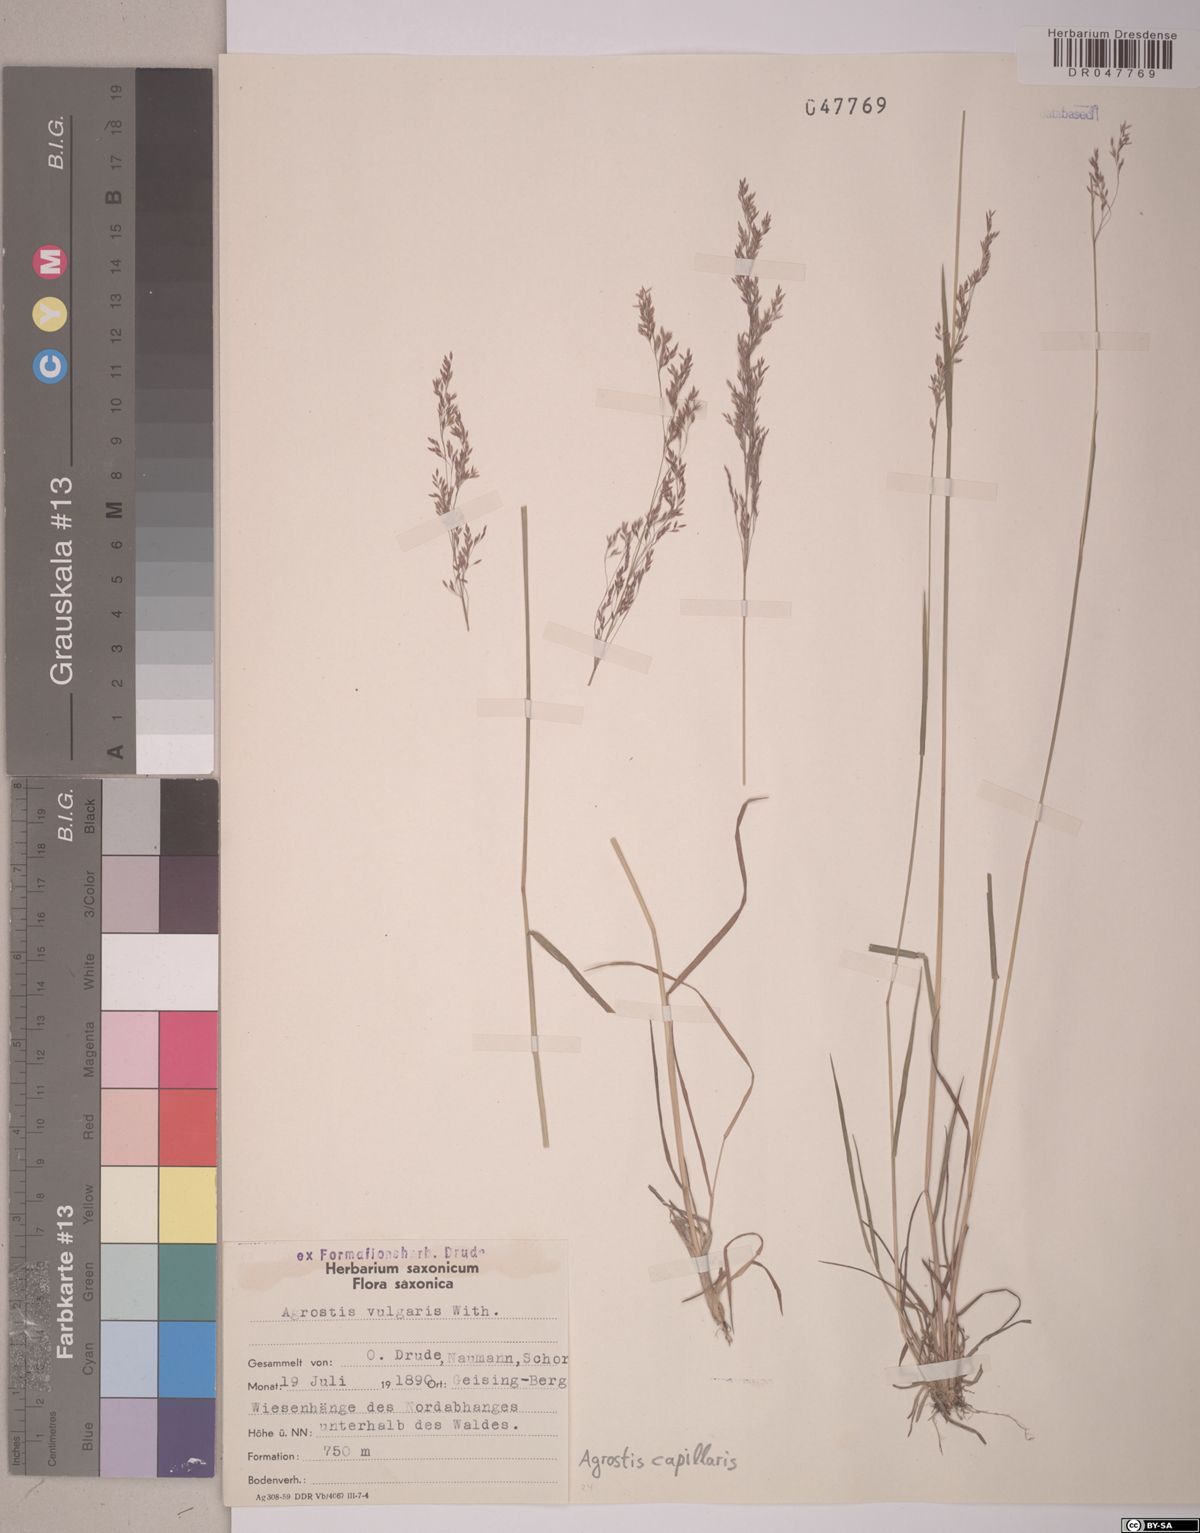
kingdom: Plantae
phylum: Tracheophyta
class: Liliopsida
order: Poales
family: Poaceae
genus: Agrostis
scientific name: Agrostis capillaris
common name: Colonial bentgrass
